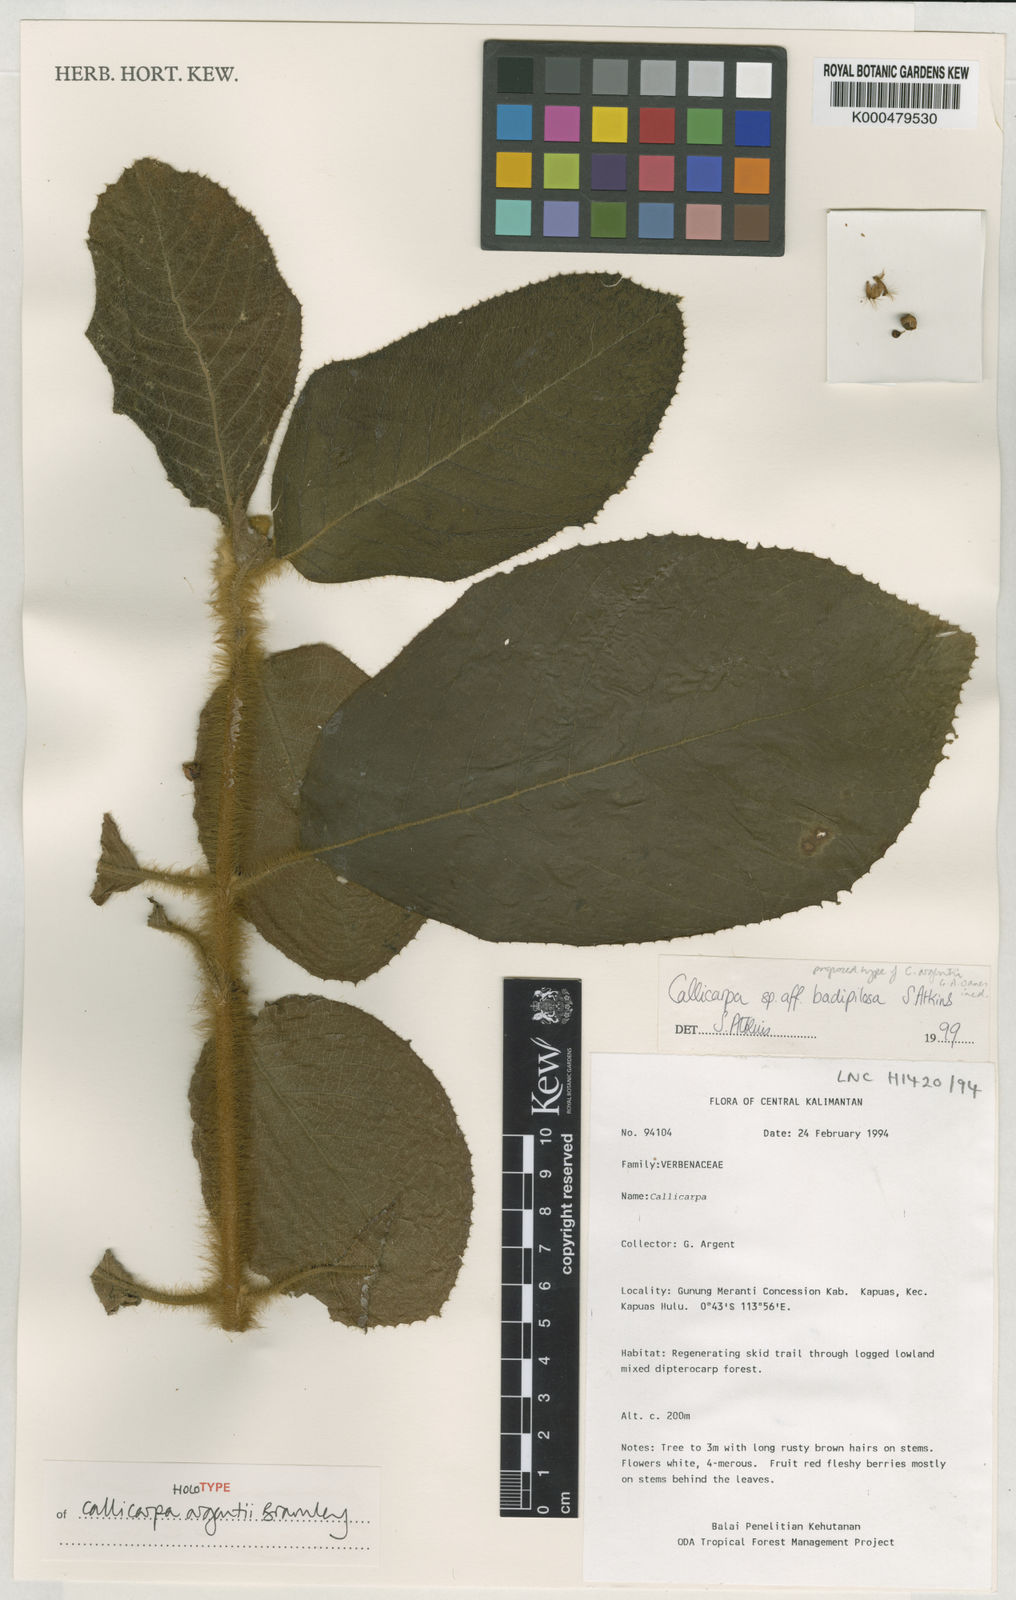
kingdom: Plantae
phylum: Tracheophyta
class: Magnoliopsida
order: Lamiales
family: Lamiaceae
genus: Callicarpa
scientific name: Callicarpa argentii
